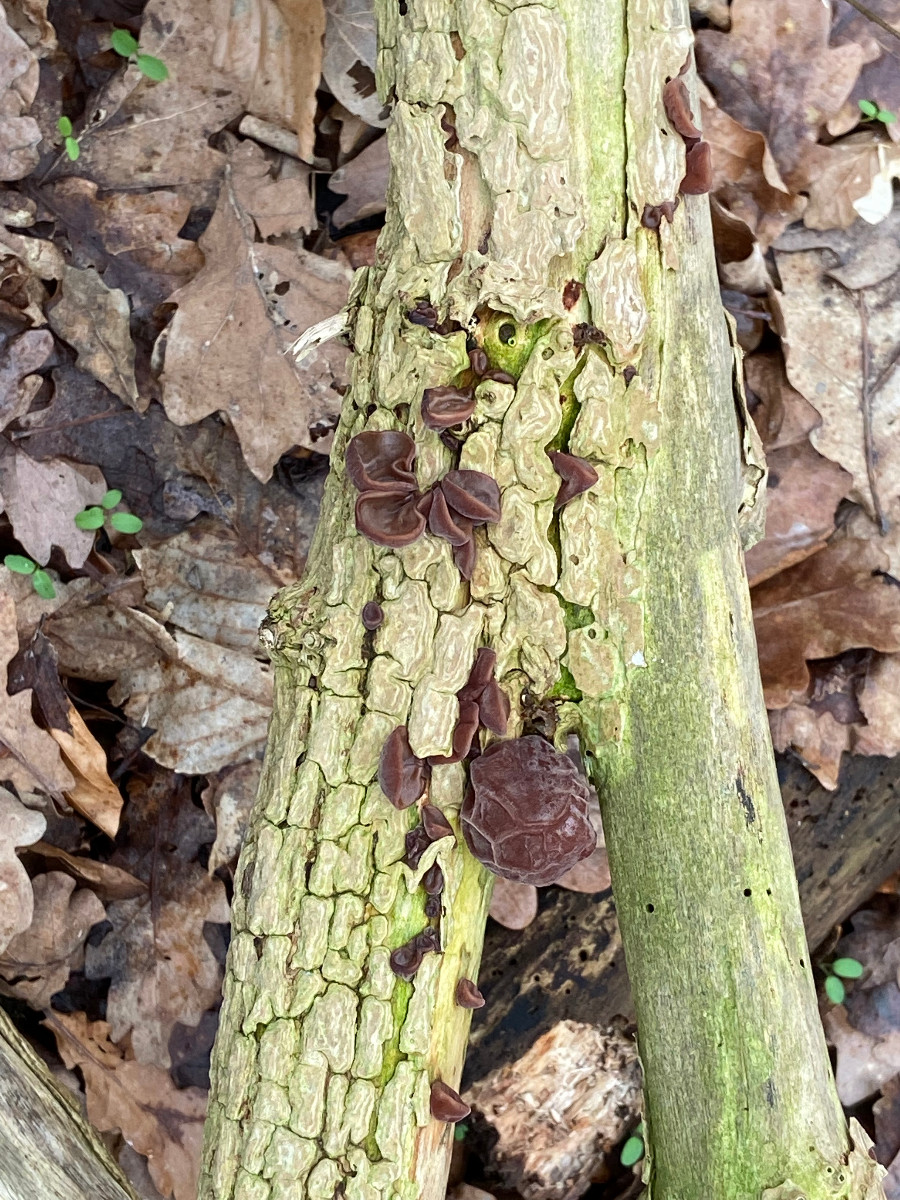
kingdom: Fungi
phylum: Basidiomycota
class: Agaricomycetes
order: Auriculariales
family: Auriculariaceae
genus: Auricularia
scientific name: Auricularia auricula-judae
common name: almindelig judasøre
